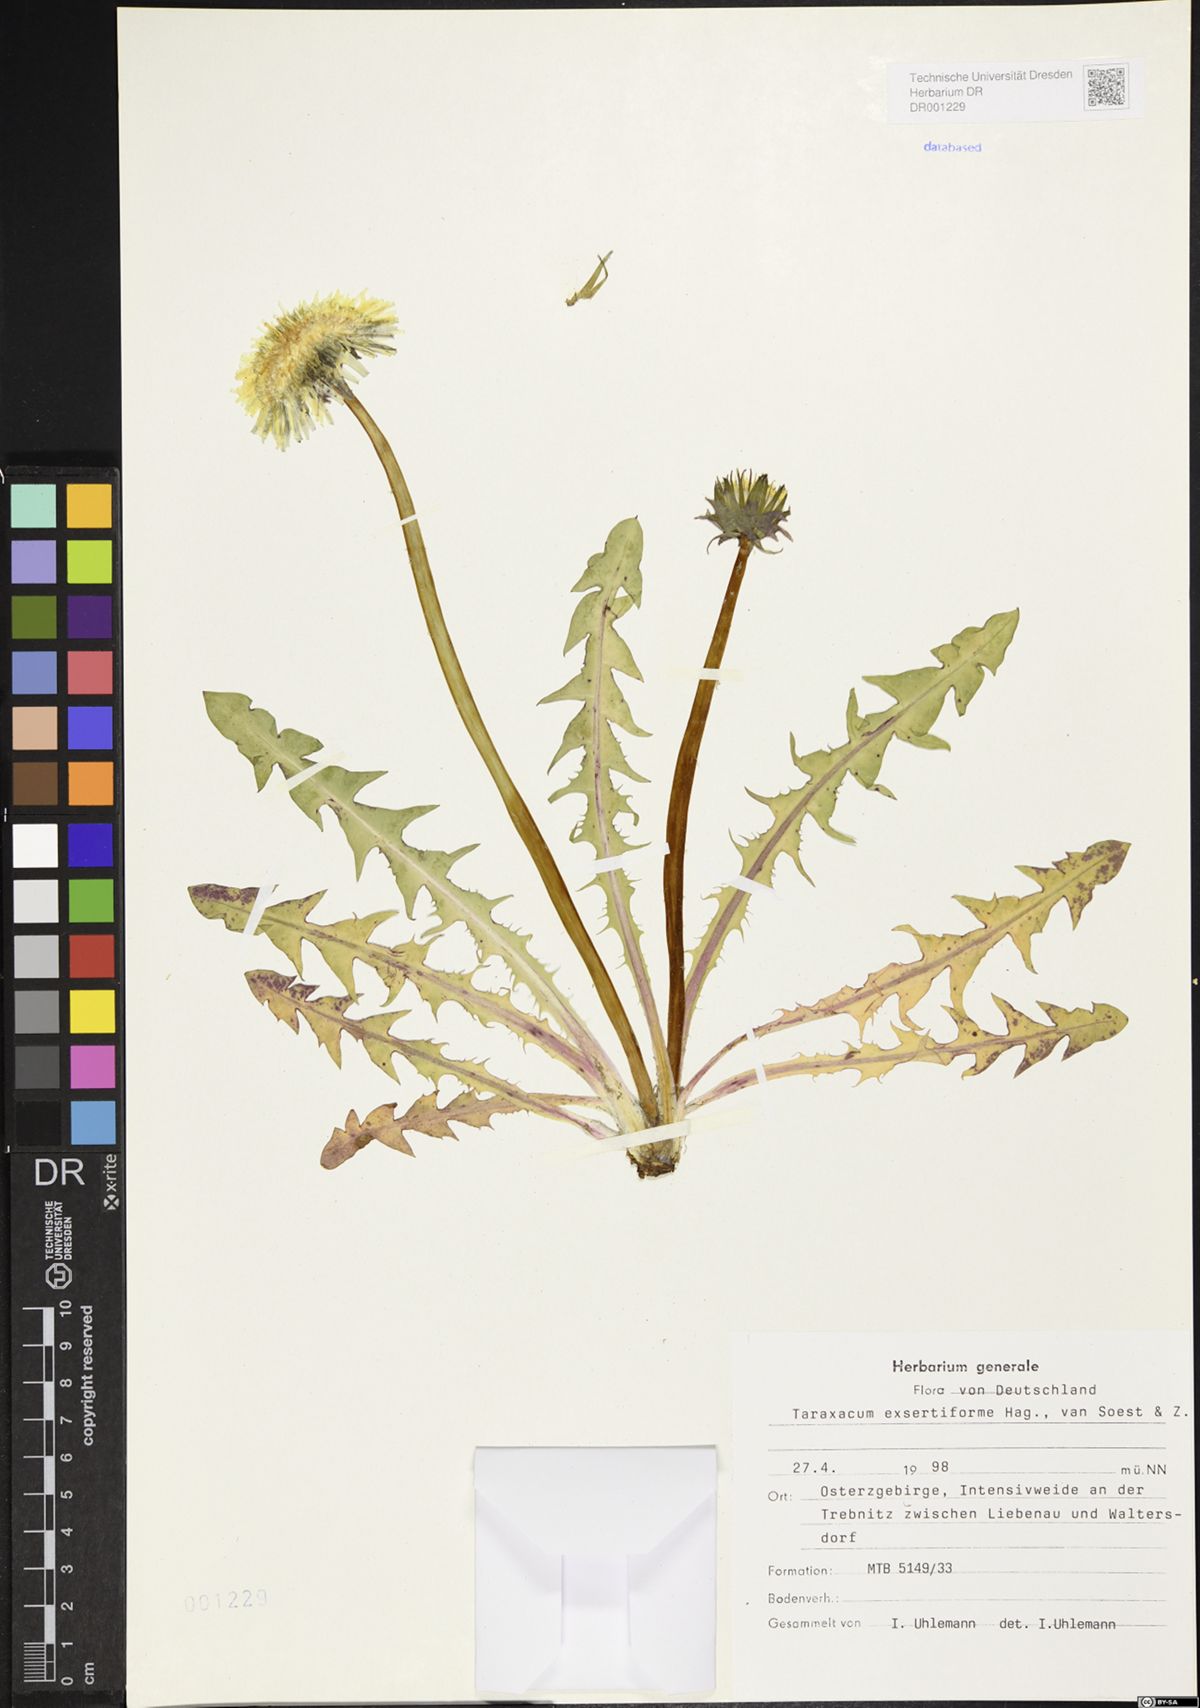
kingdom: Plantae
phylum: Tracheophyta
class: Magnoliopsida
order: Asterales
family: Asteraceae
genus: Taraxacum
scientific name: Taraxacum exsertiforme
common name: Erect-bracted dandelion
